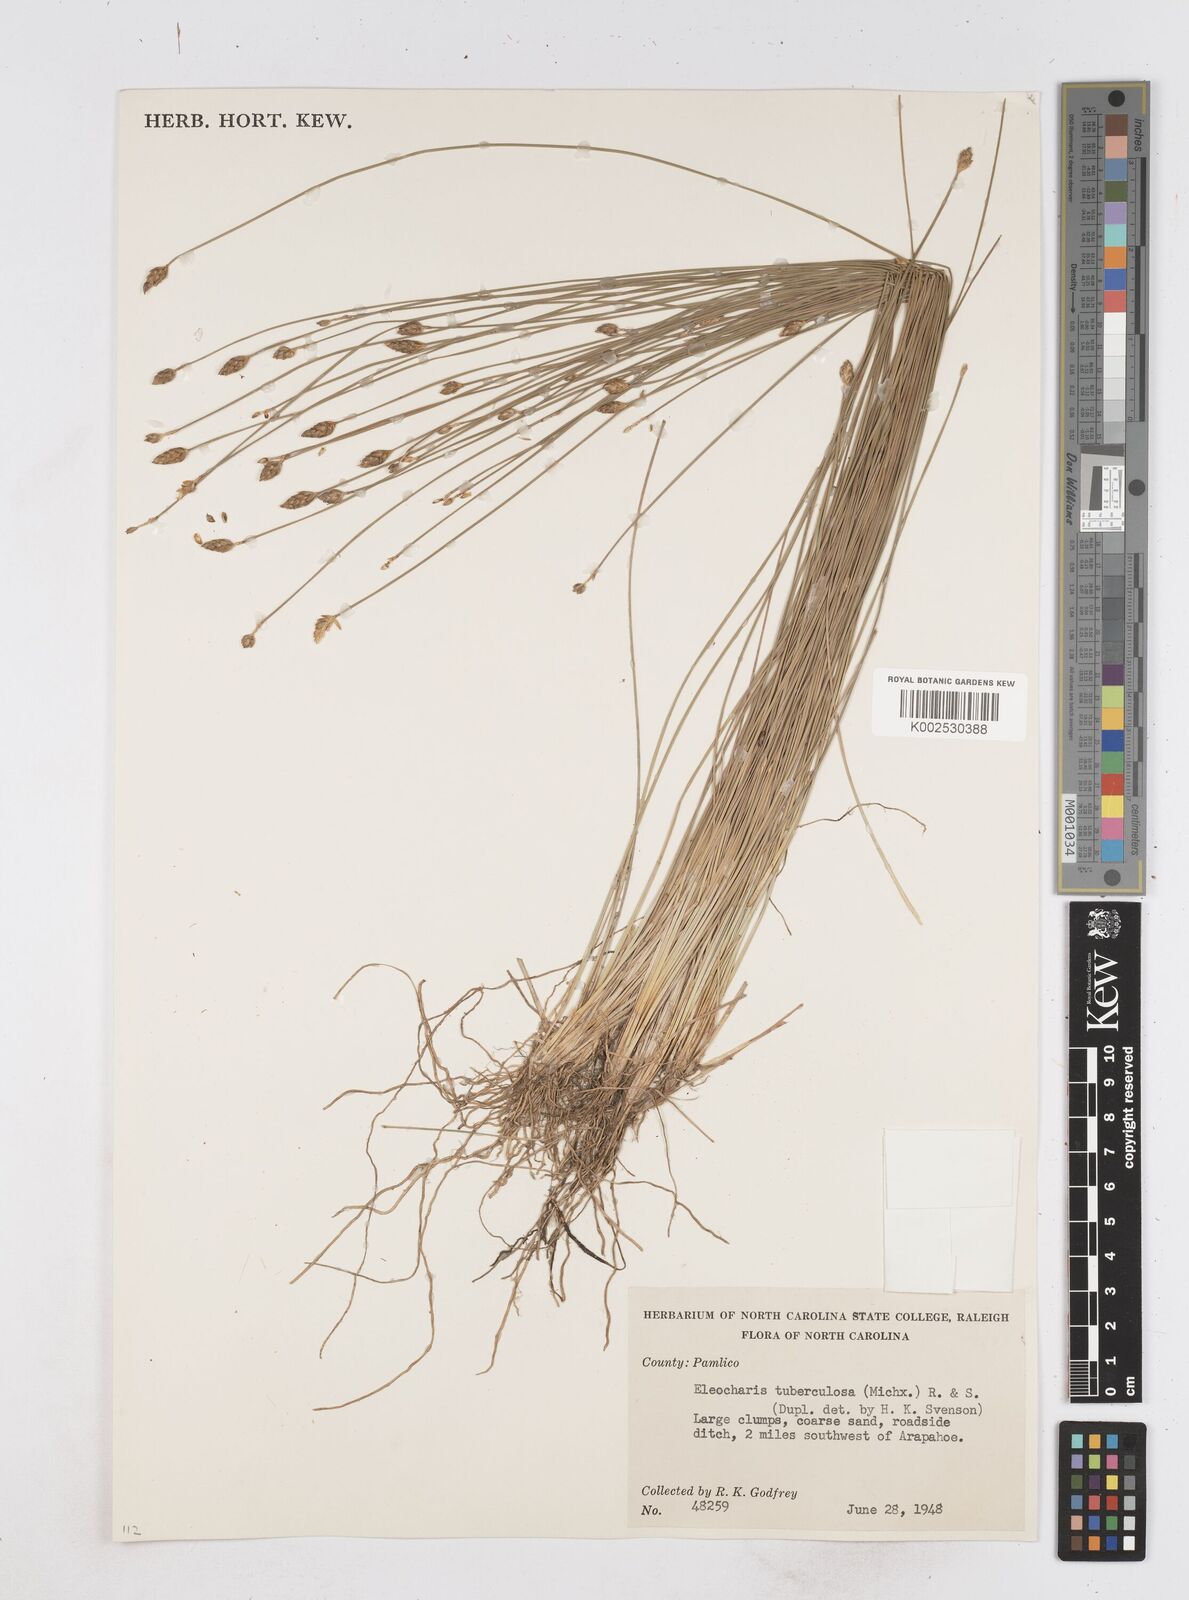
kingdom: Plantae
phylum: Tracheophyta
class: Liliopsida
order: Poales
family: Cyperaceae
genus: Eleocharis
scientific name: Eleocharis tuberculosa
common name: Cone-cup spikerush
